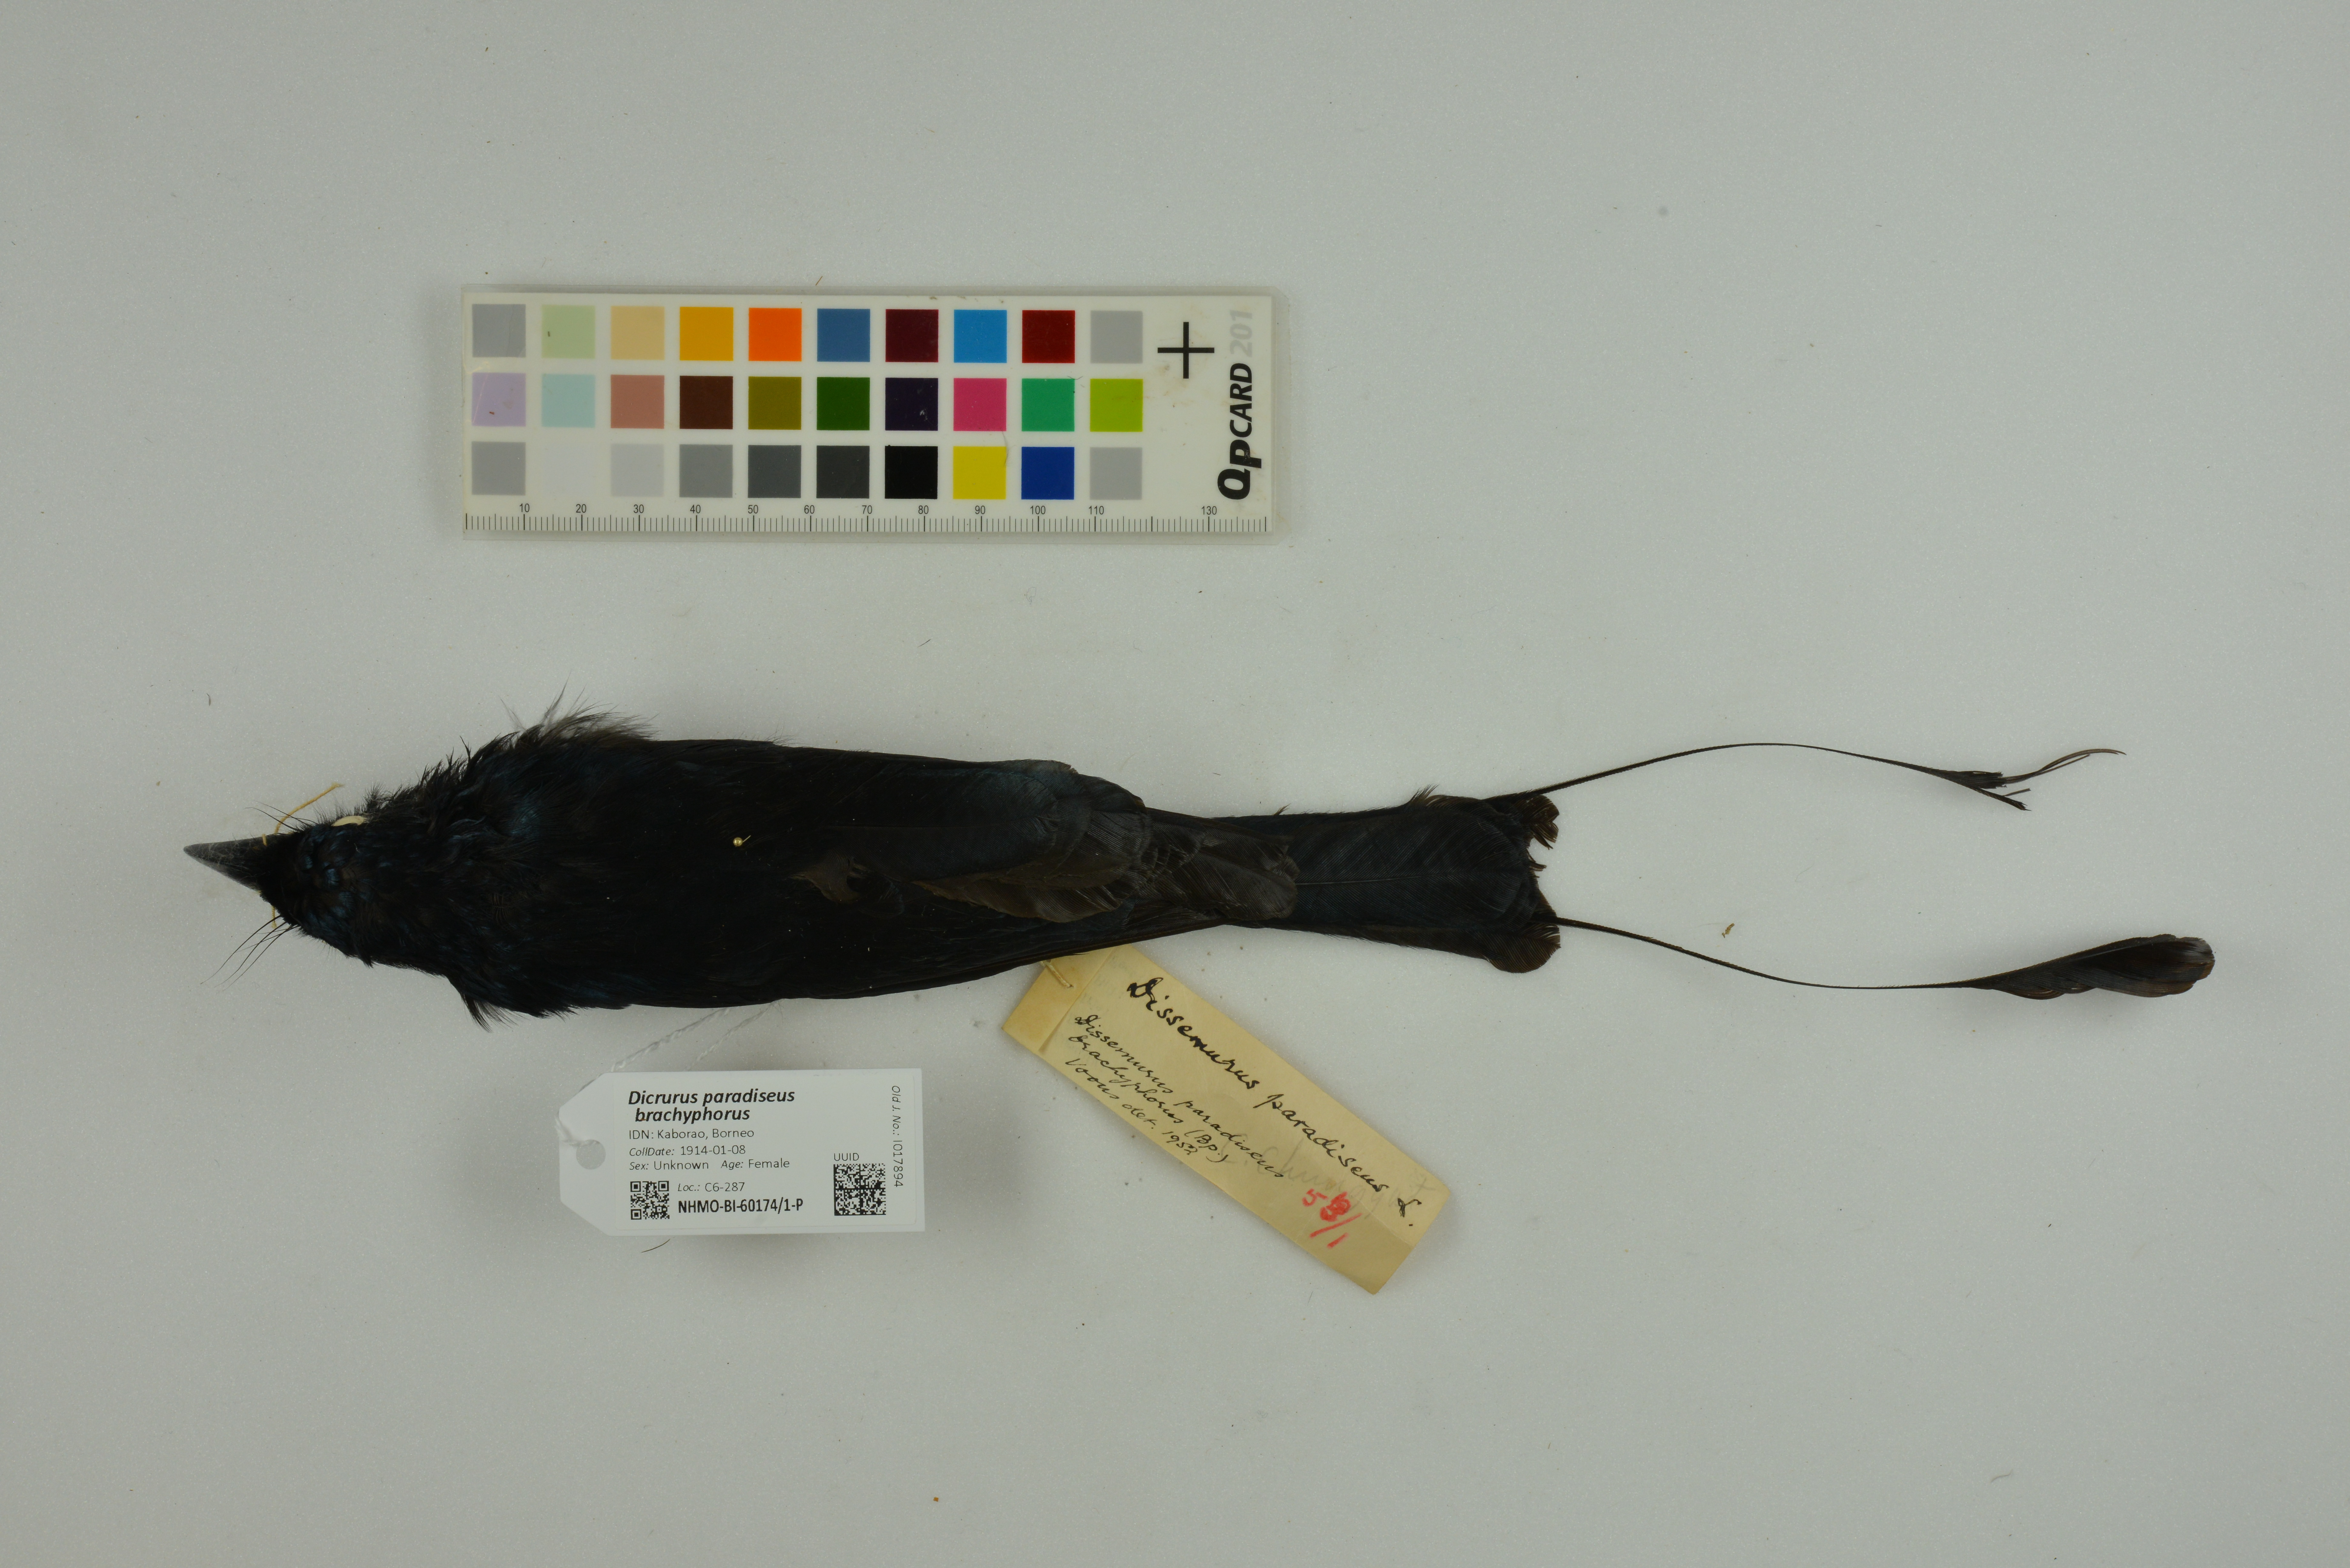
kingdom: Animalia
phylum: Chordata
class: Aves
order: Passeriformes
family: Dicruridae
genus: Dicrurus
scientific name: Dicrurus paradiseus
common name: Greater racket-tailed drongo
